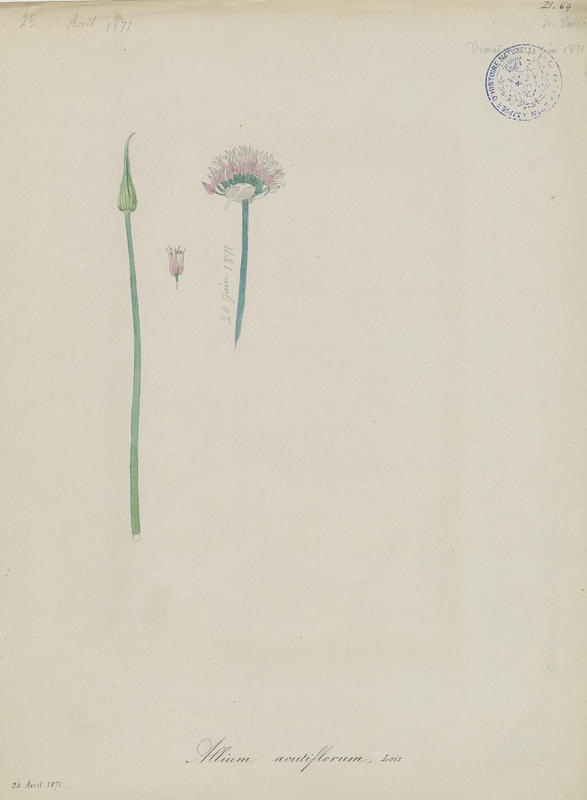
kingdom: Plantae
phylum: Tracheophyta
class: Liliopsida
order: Asparagales
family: Amaryllidaceae
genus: Allium
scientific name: Allium acutiflorum
